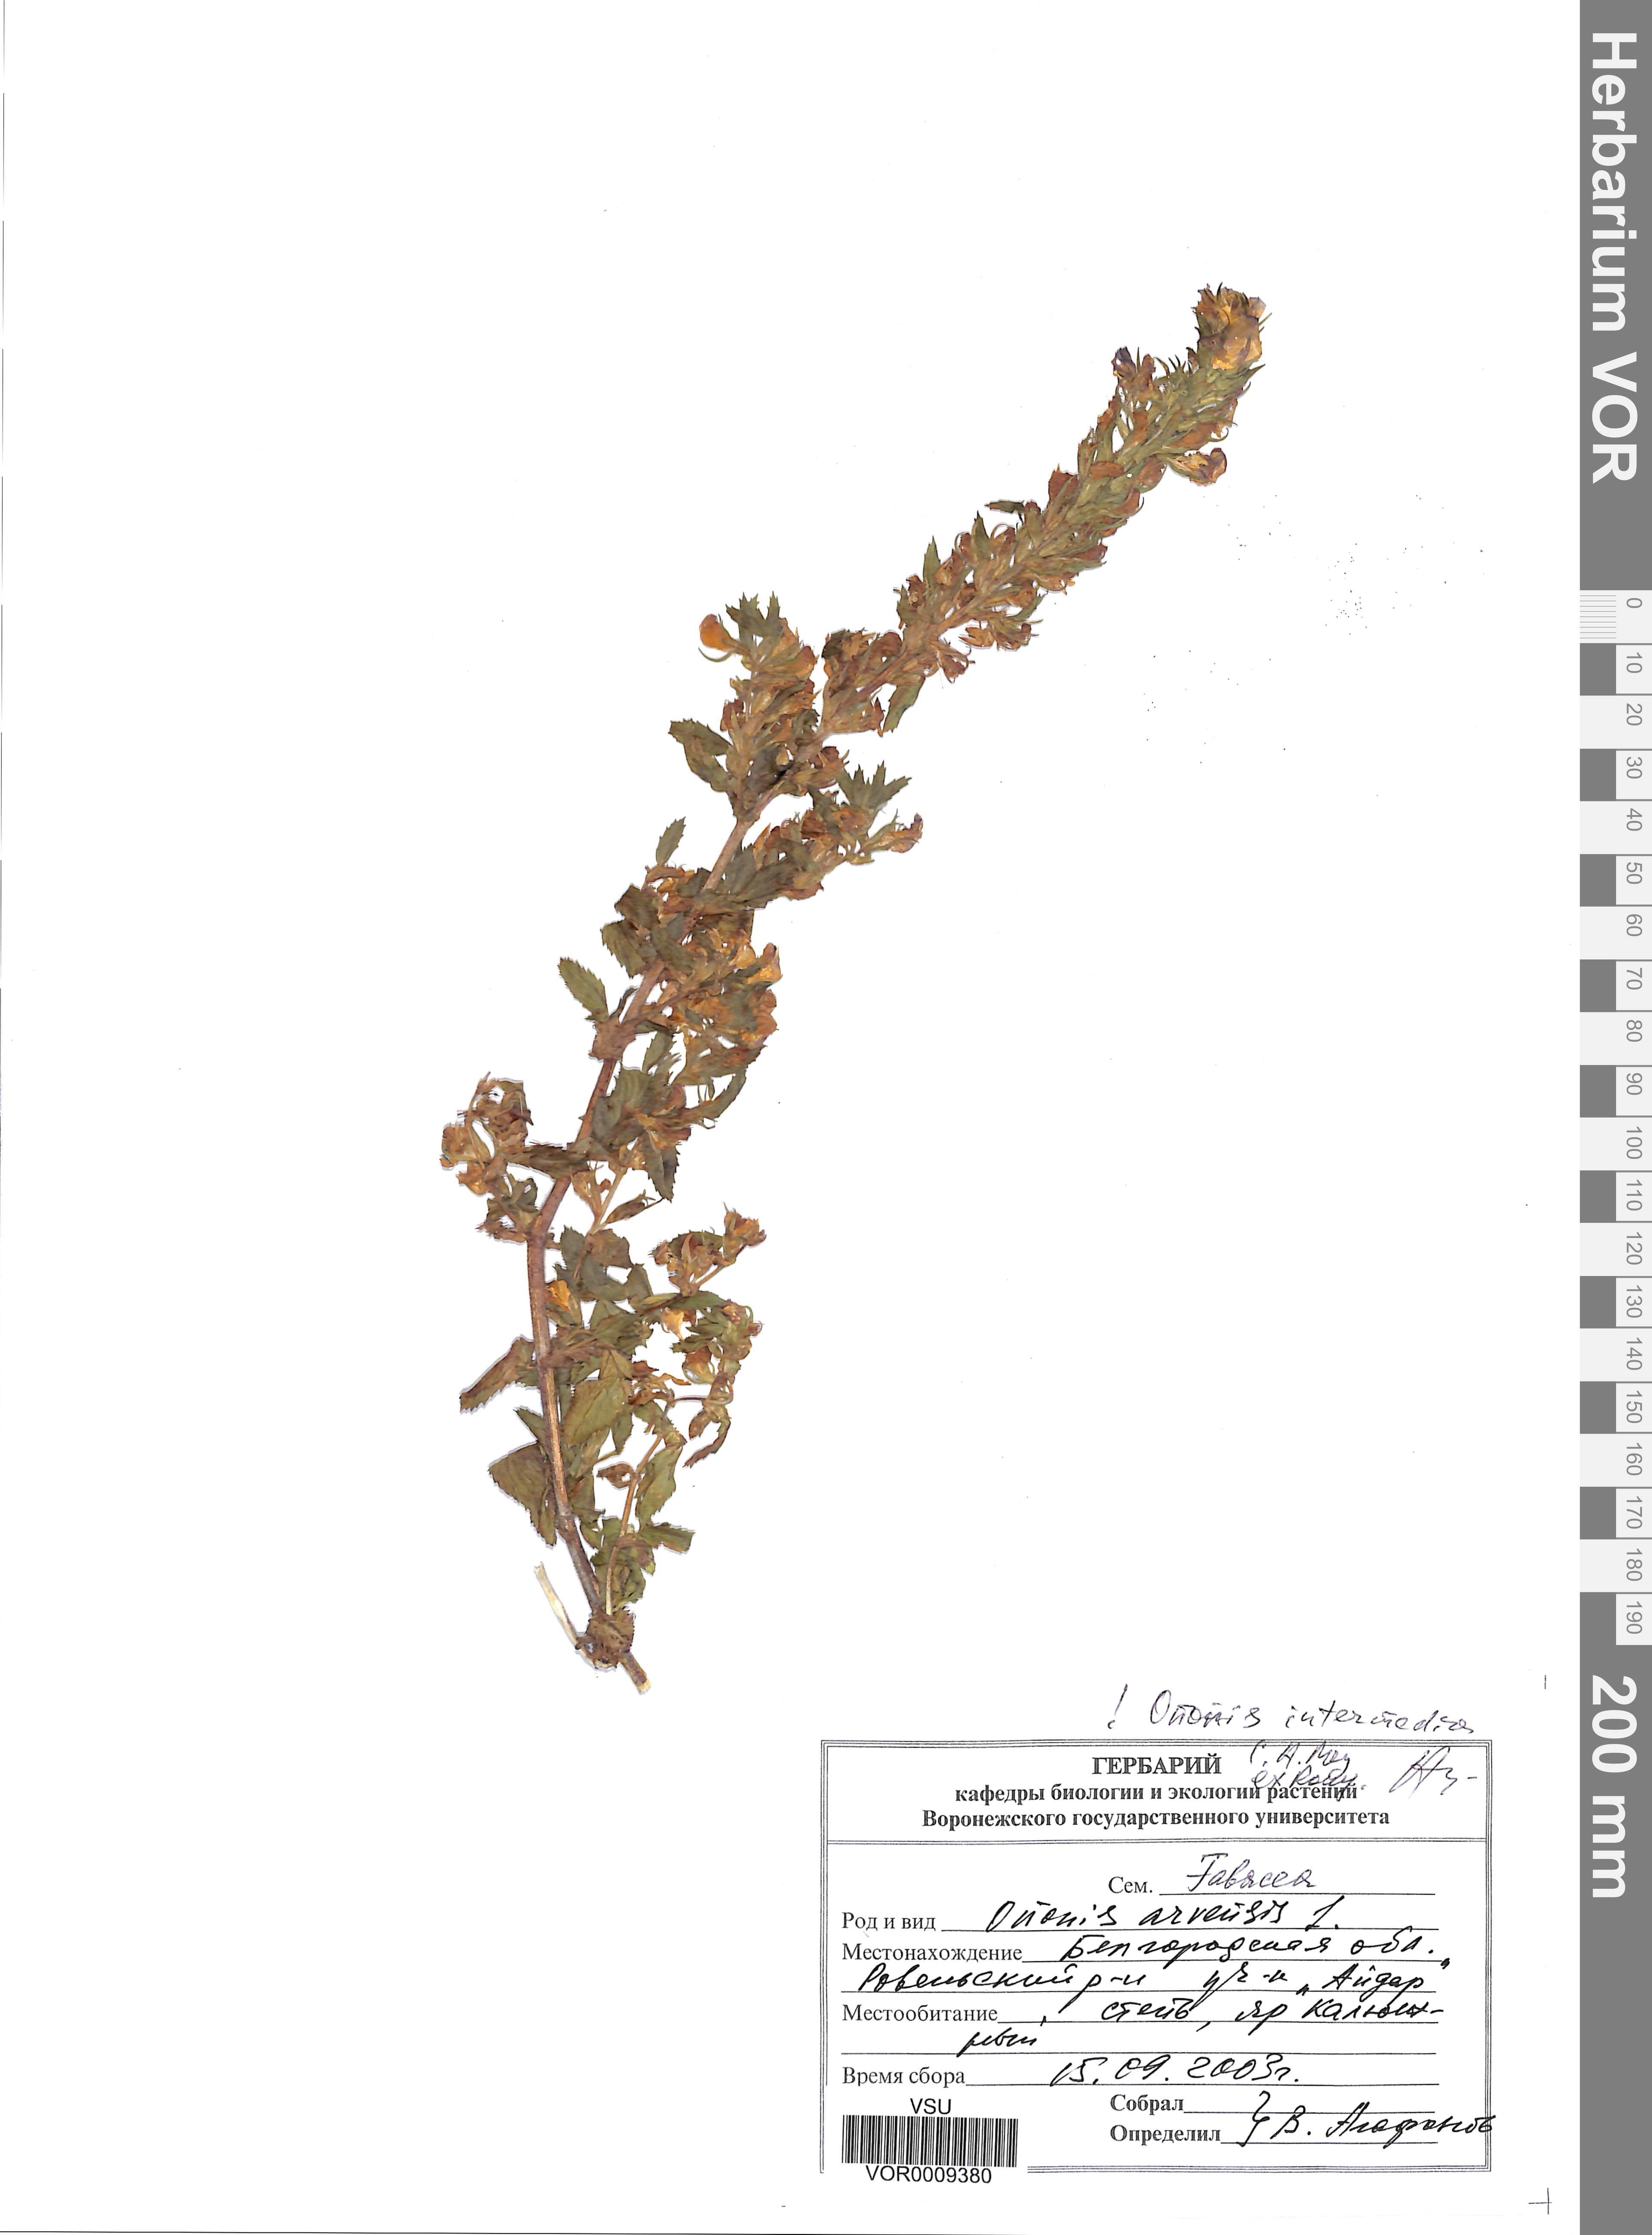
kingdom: Plantae
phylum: Tracheophyta
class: Magnoliopsida
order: Fabales
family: Fabaceae
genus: Ononis
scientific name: Ononis intermedia
